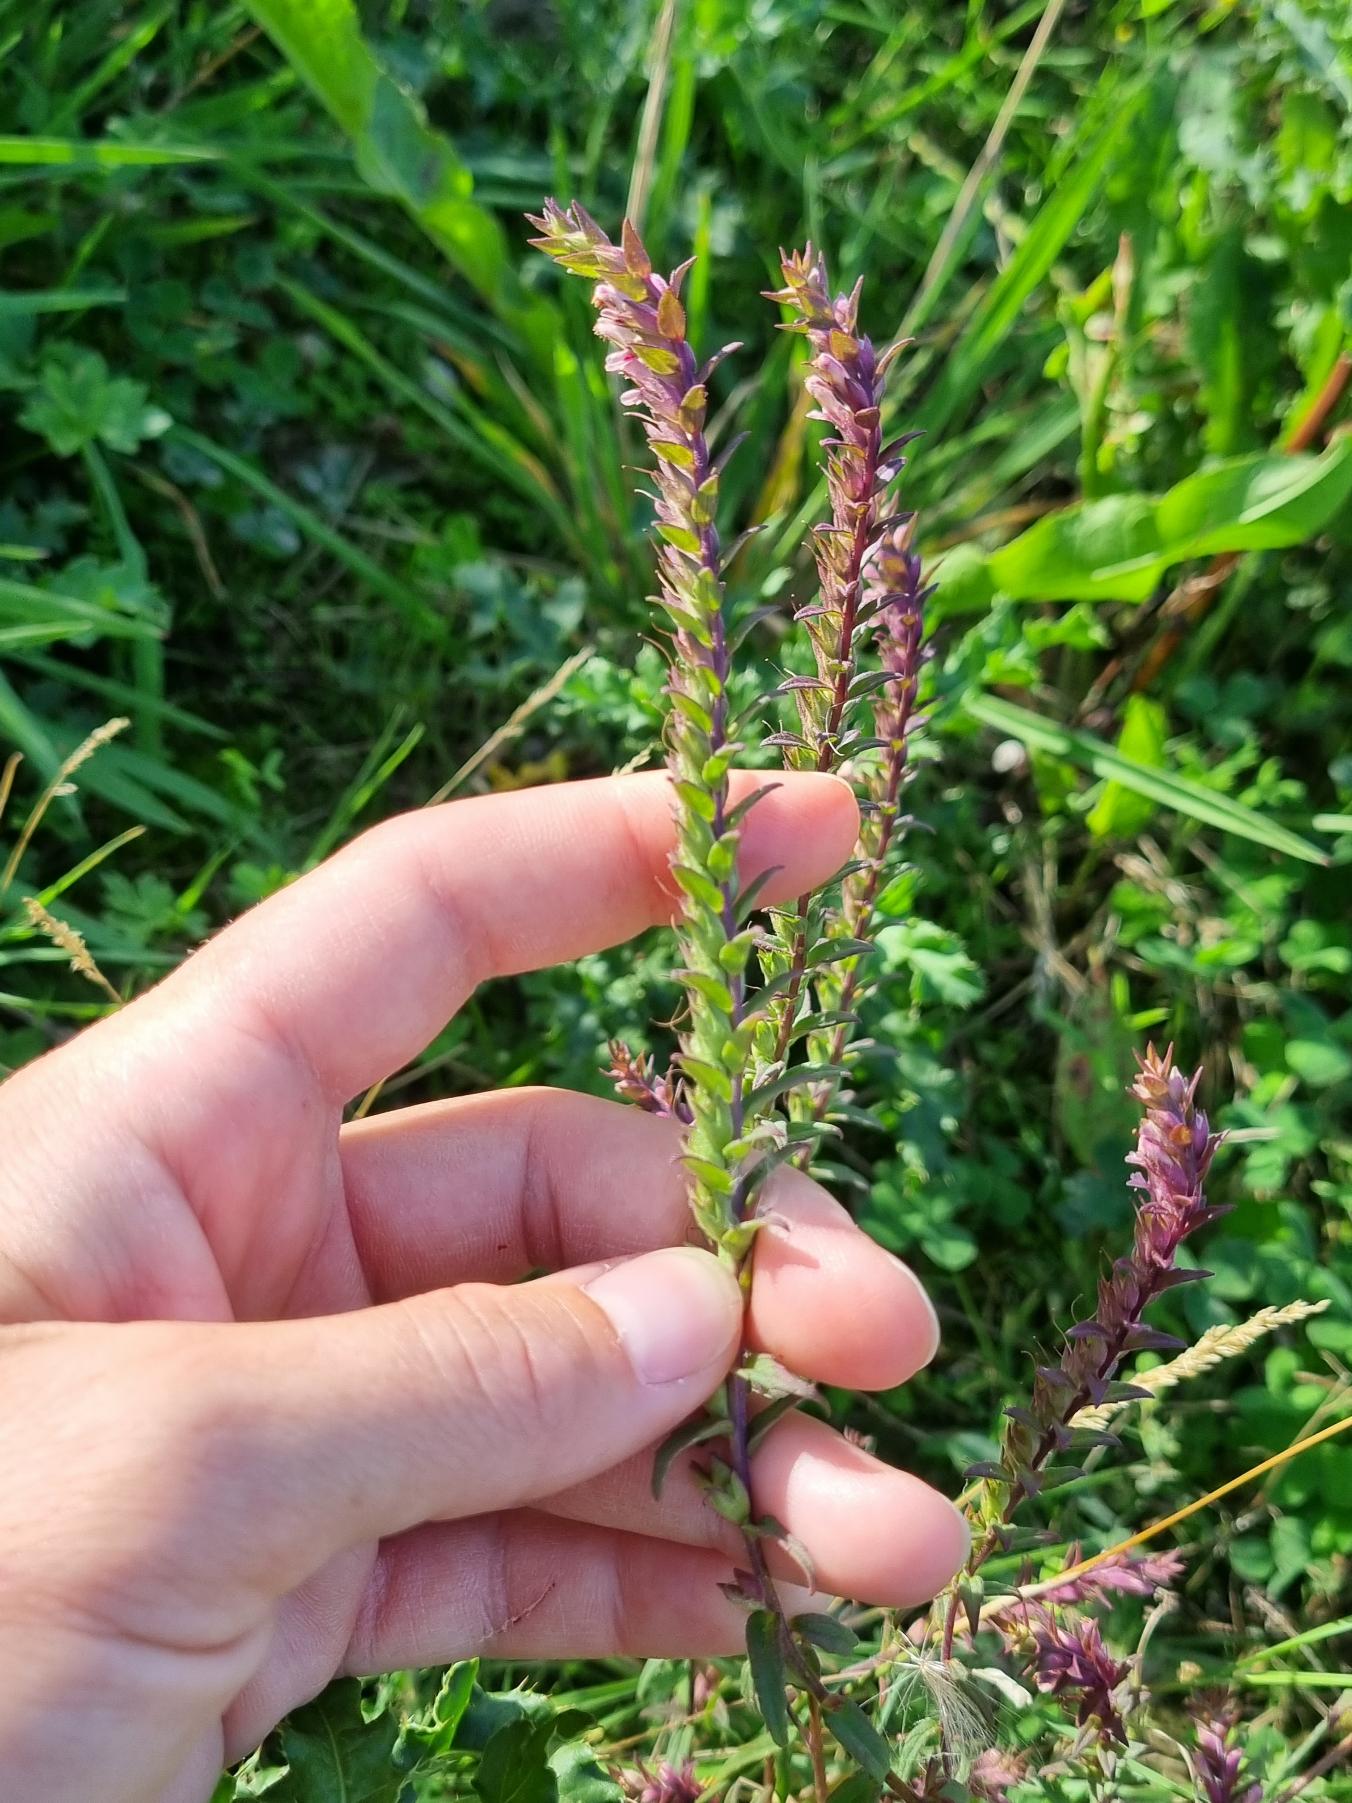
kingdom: Plantae
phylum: Tracheophyta
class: Magnoliopsida
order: Lamiales
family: Orobanchaceae
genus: Odontites
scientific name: Odontites vulgaris
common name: Høst-rødtop
